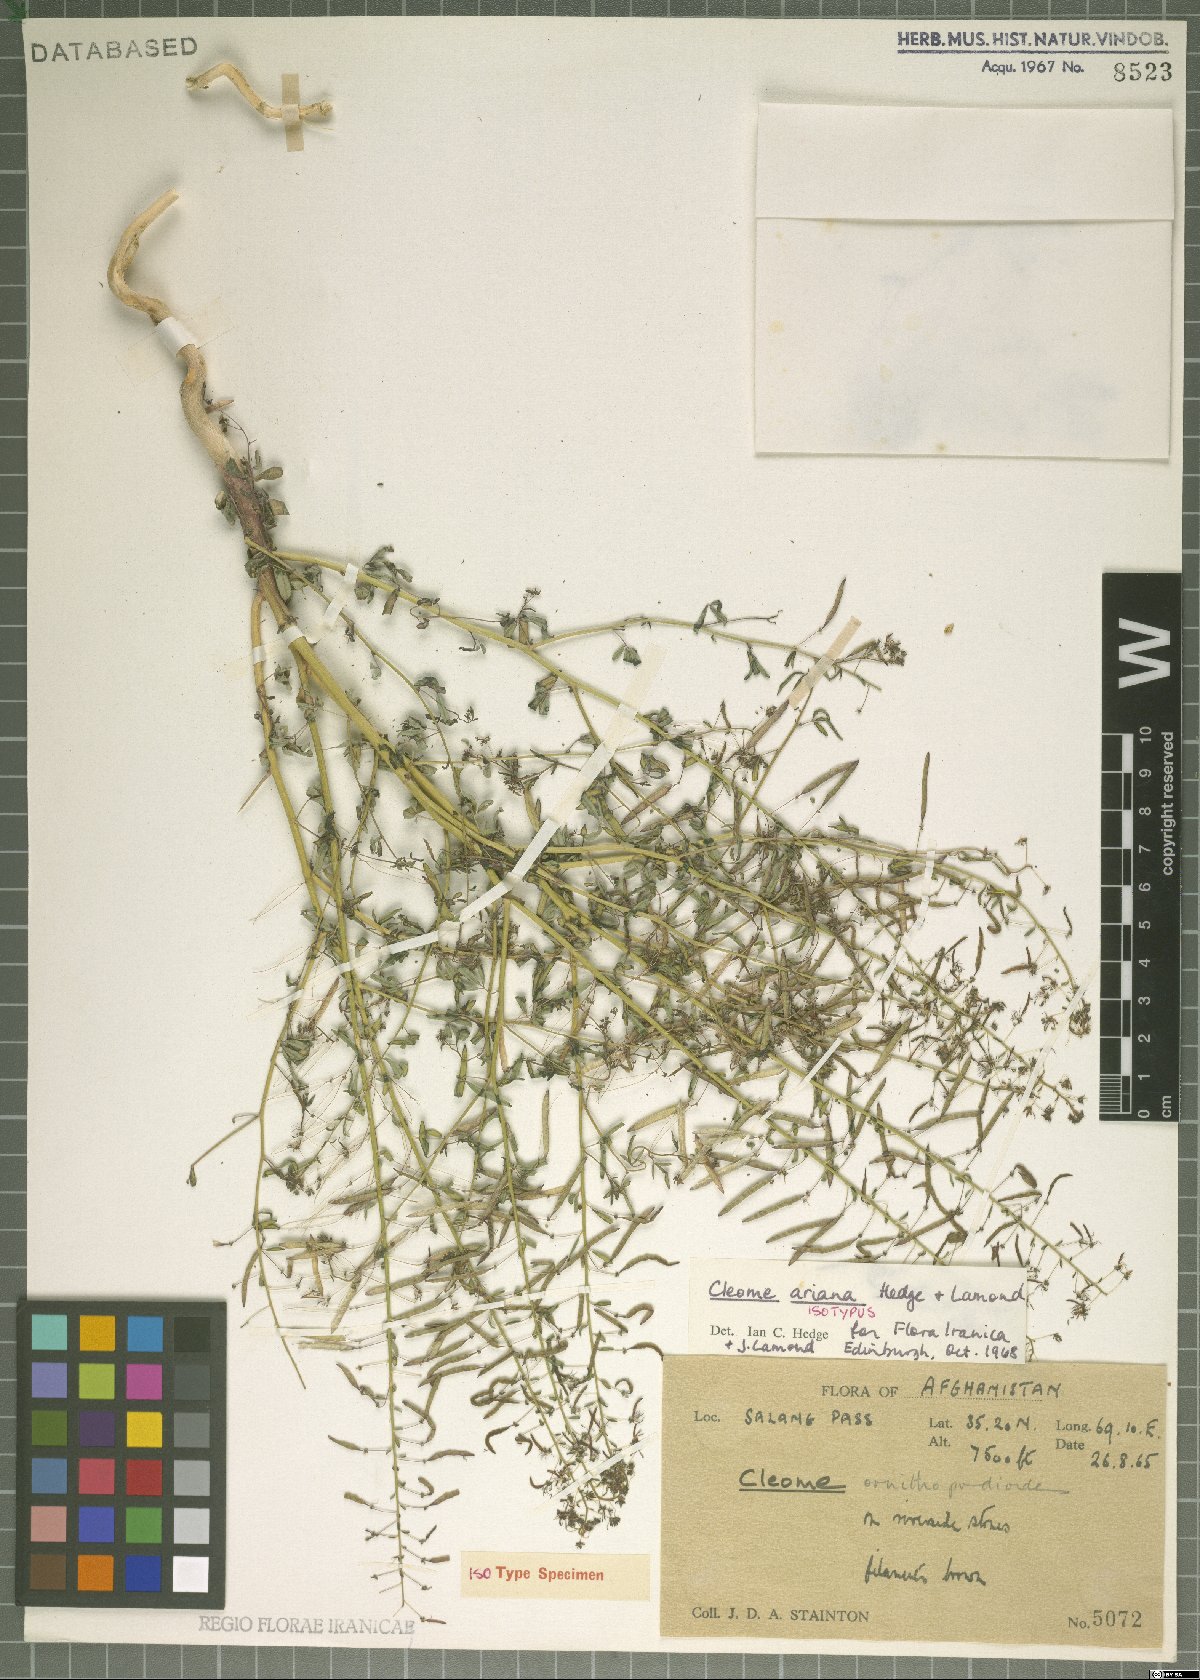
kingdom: Plantae
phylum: Tracheophyta
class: Magnoliopsida
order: Brassicales
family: Cleomaceae
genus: Cleome
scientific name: Cleome ariana
